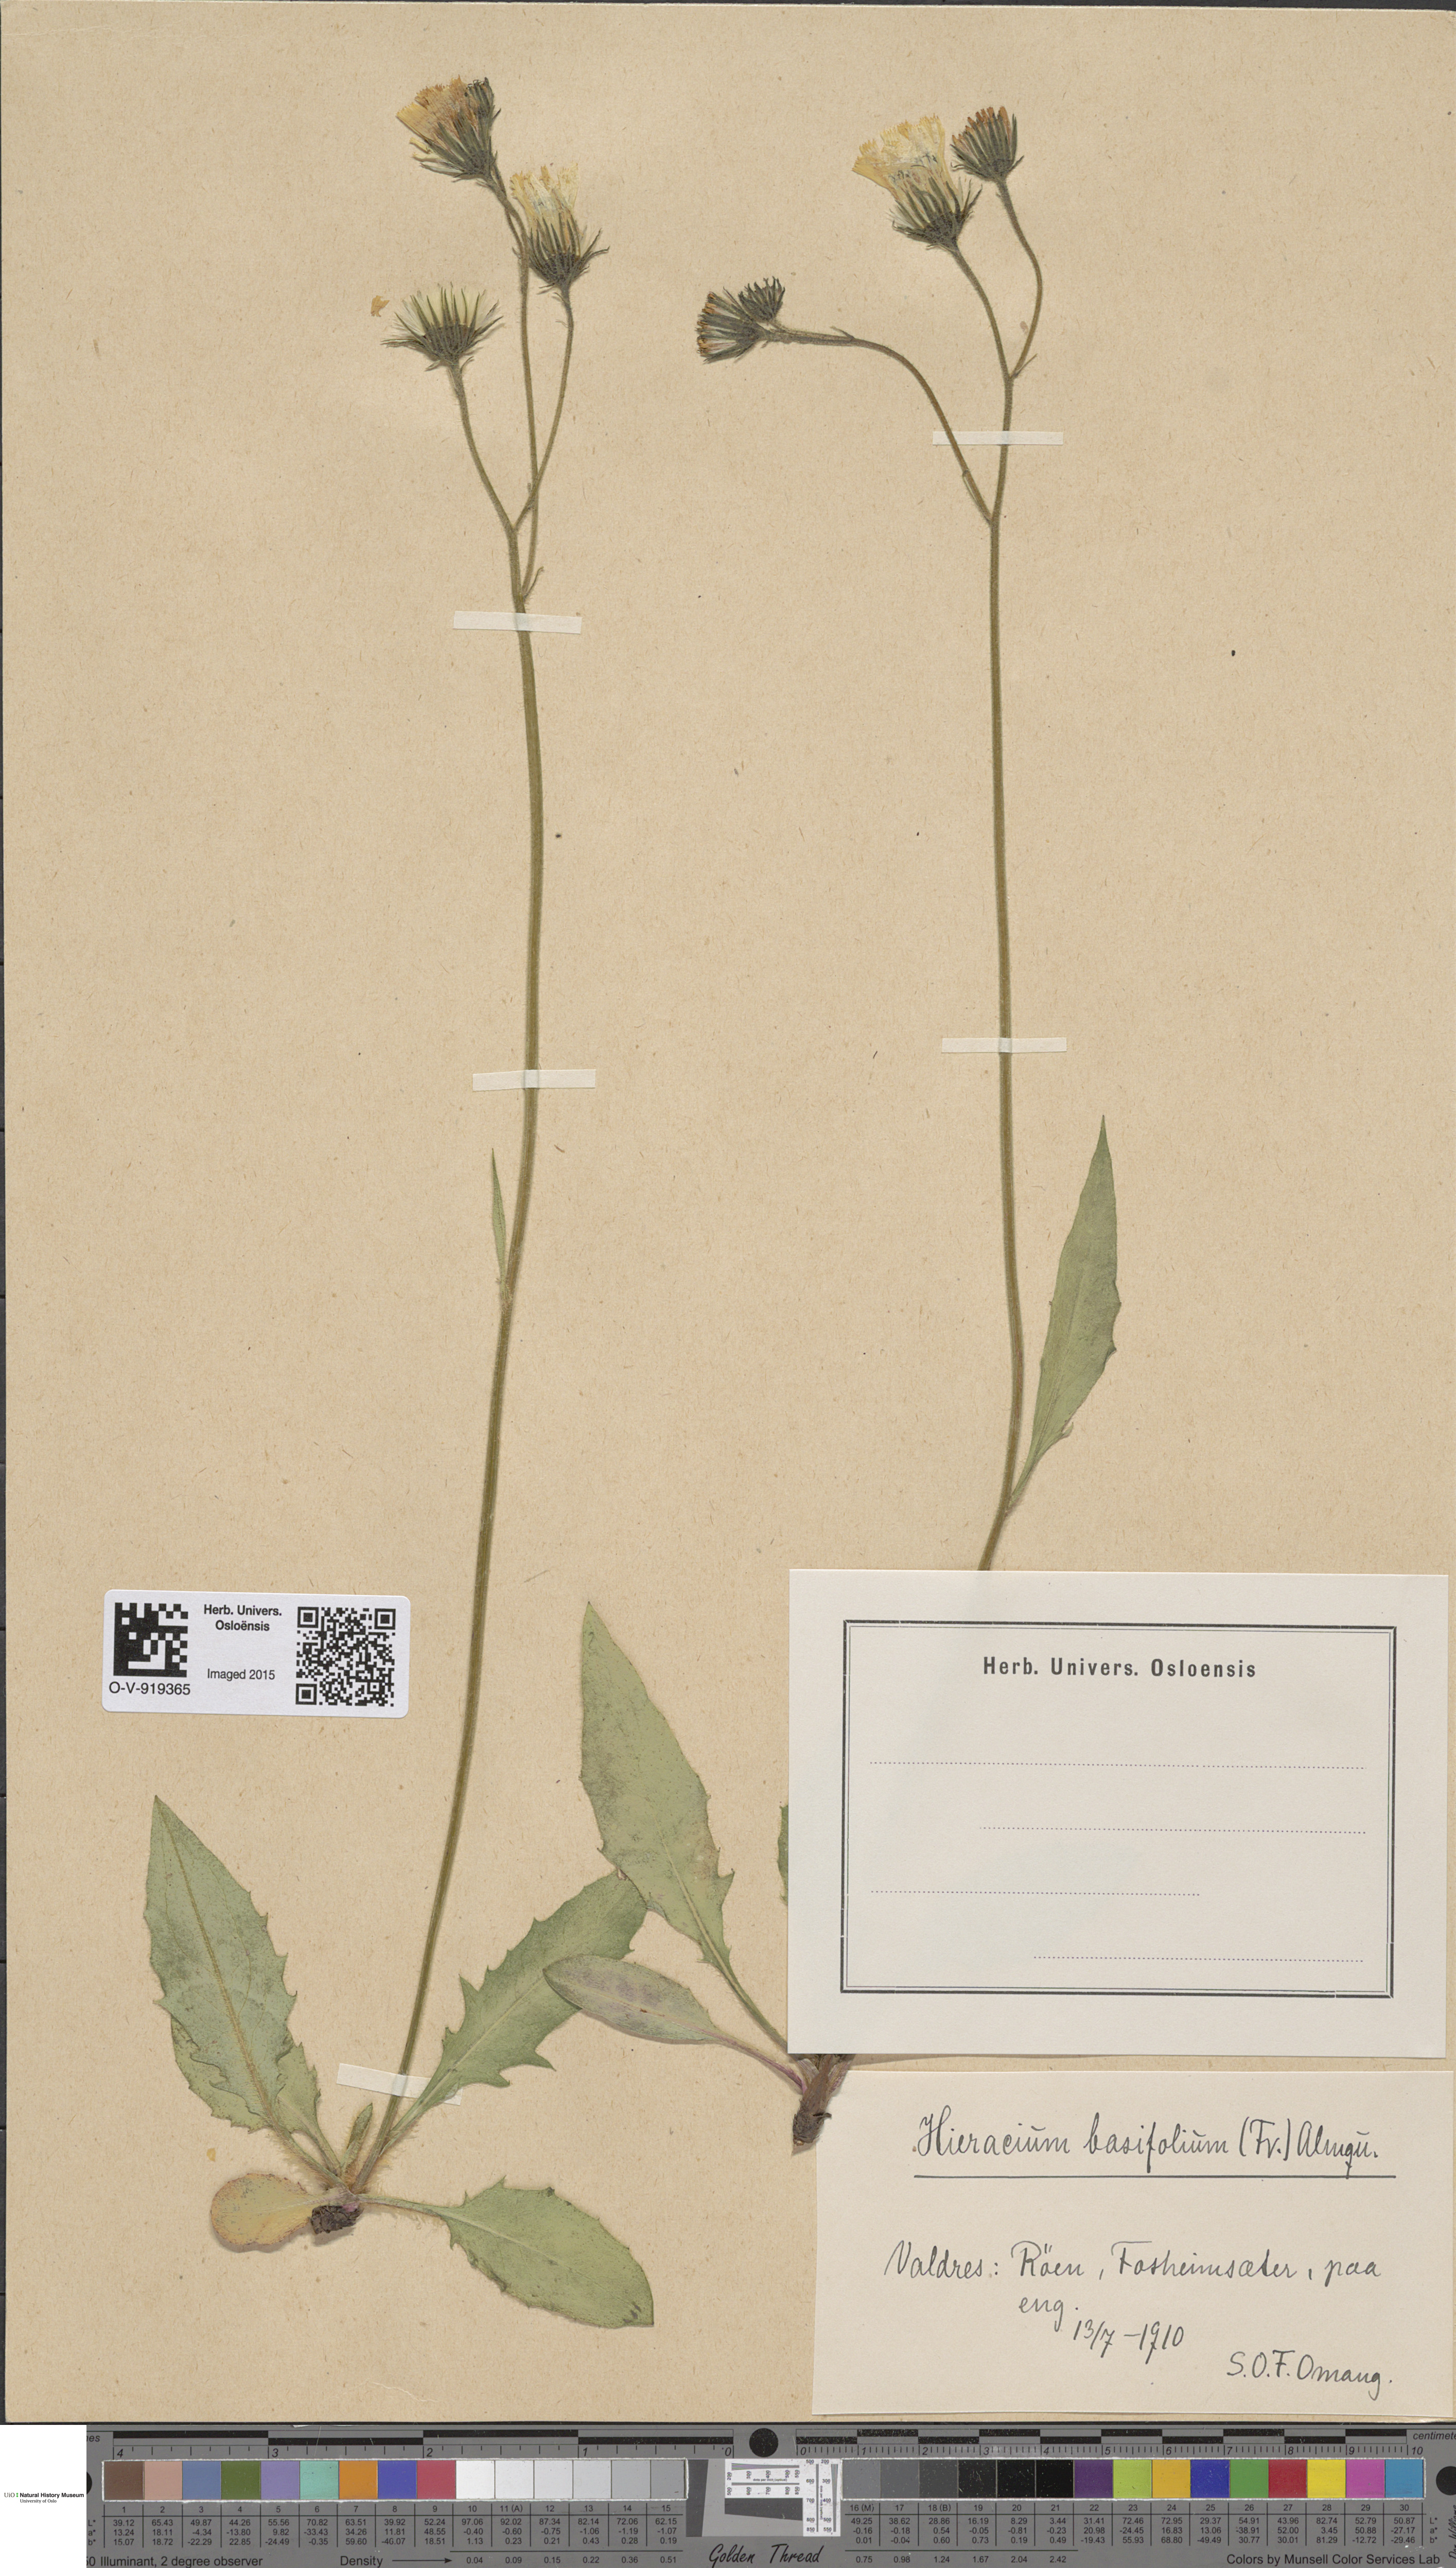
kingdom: Plantae
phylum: Tracheophyta
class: Magnoliopsida
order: Asterales
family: Asteraceae
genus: Hieracium
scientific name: Hieracium basifolium
